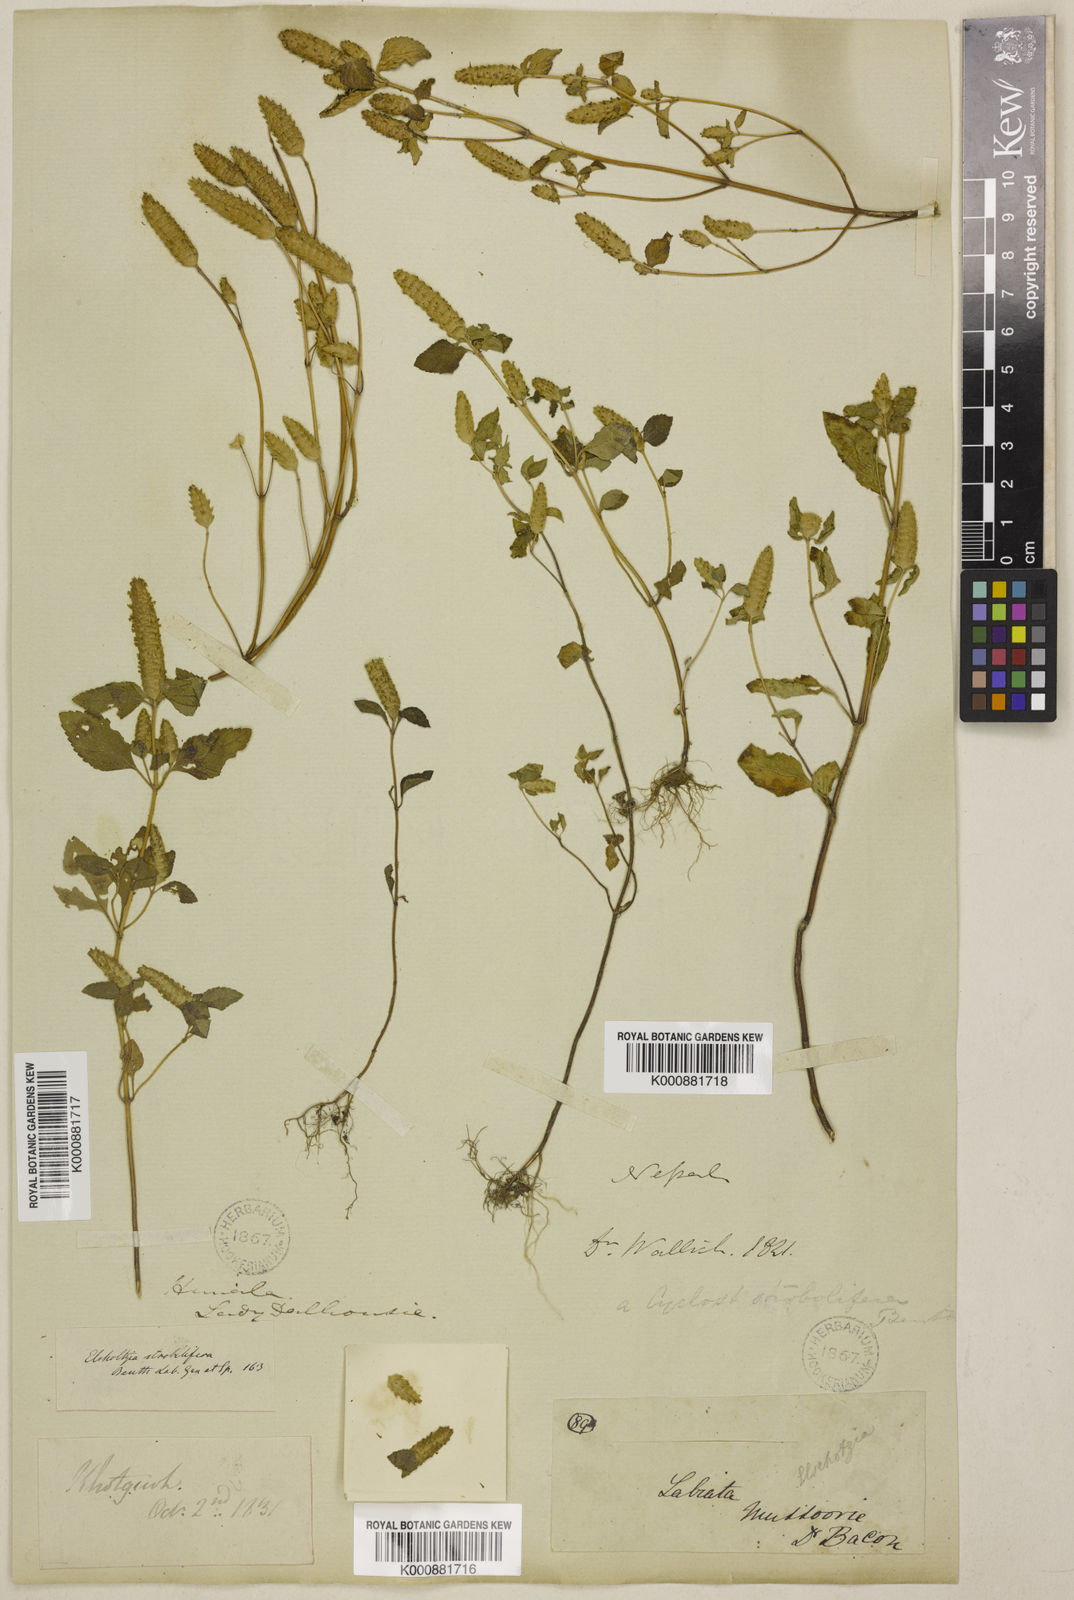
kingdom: Plantae
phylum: Tracheophyta
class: Magnoliopsida
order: Lamiales
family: Lamiaceae
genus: Elsholtzia
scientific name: Elsholtzia strobilifera
